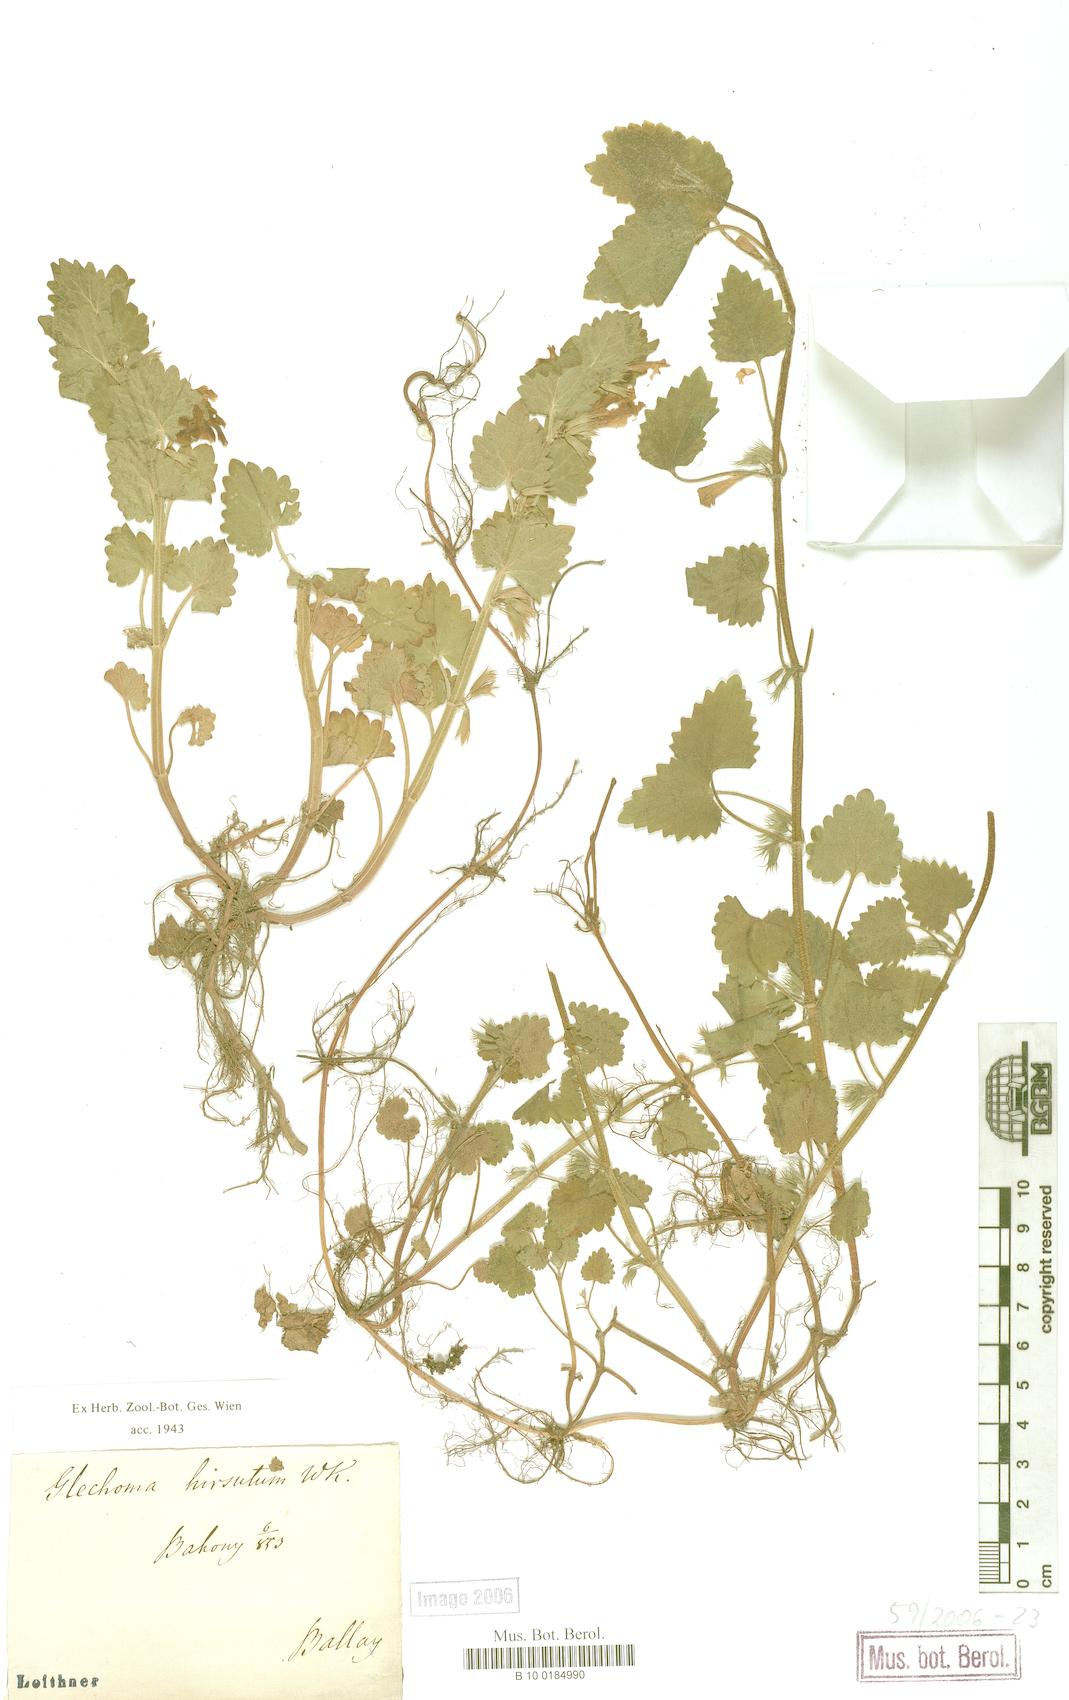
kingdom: Plantae
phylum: Tracheophyta
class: Magnoliopsida
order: Lamiales
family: Lamiaceae
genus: Glechoma
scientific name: Glechoma hirsuta
